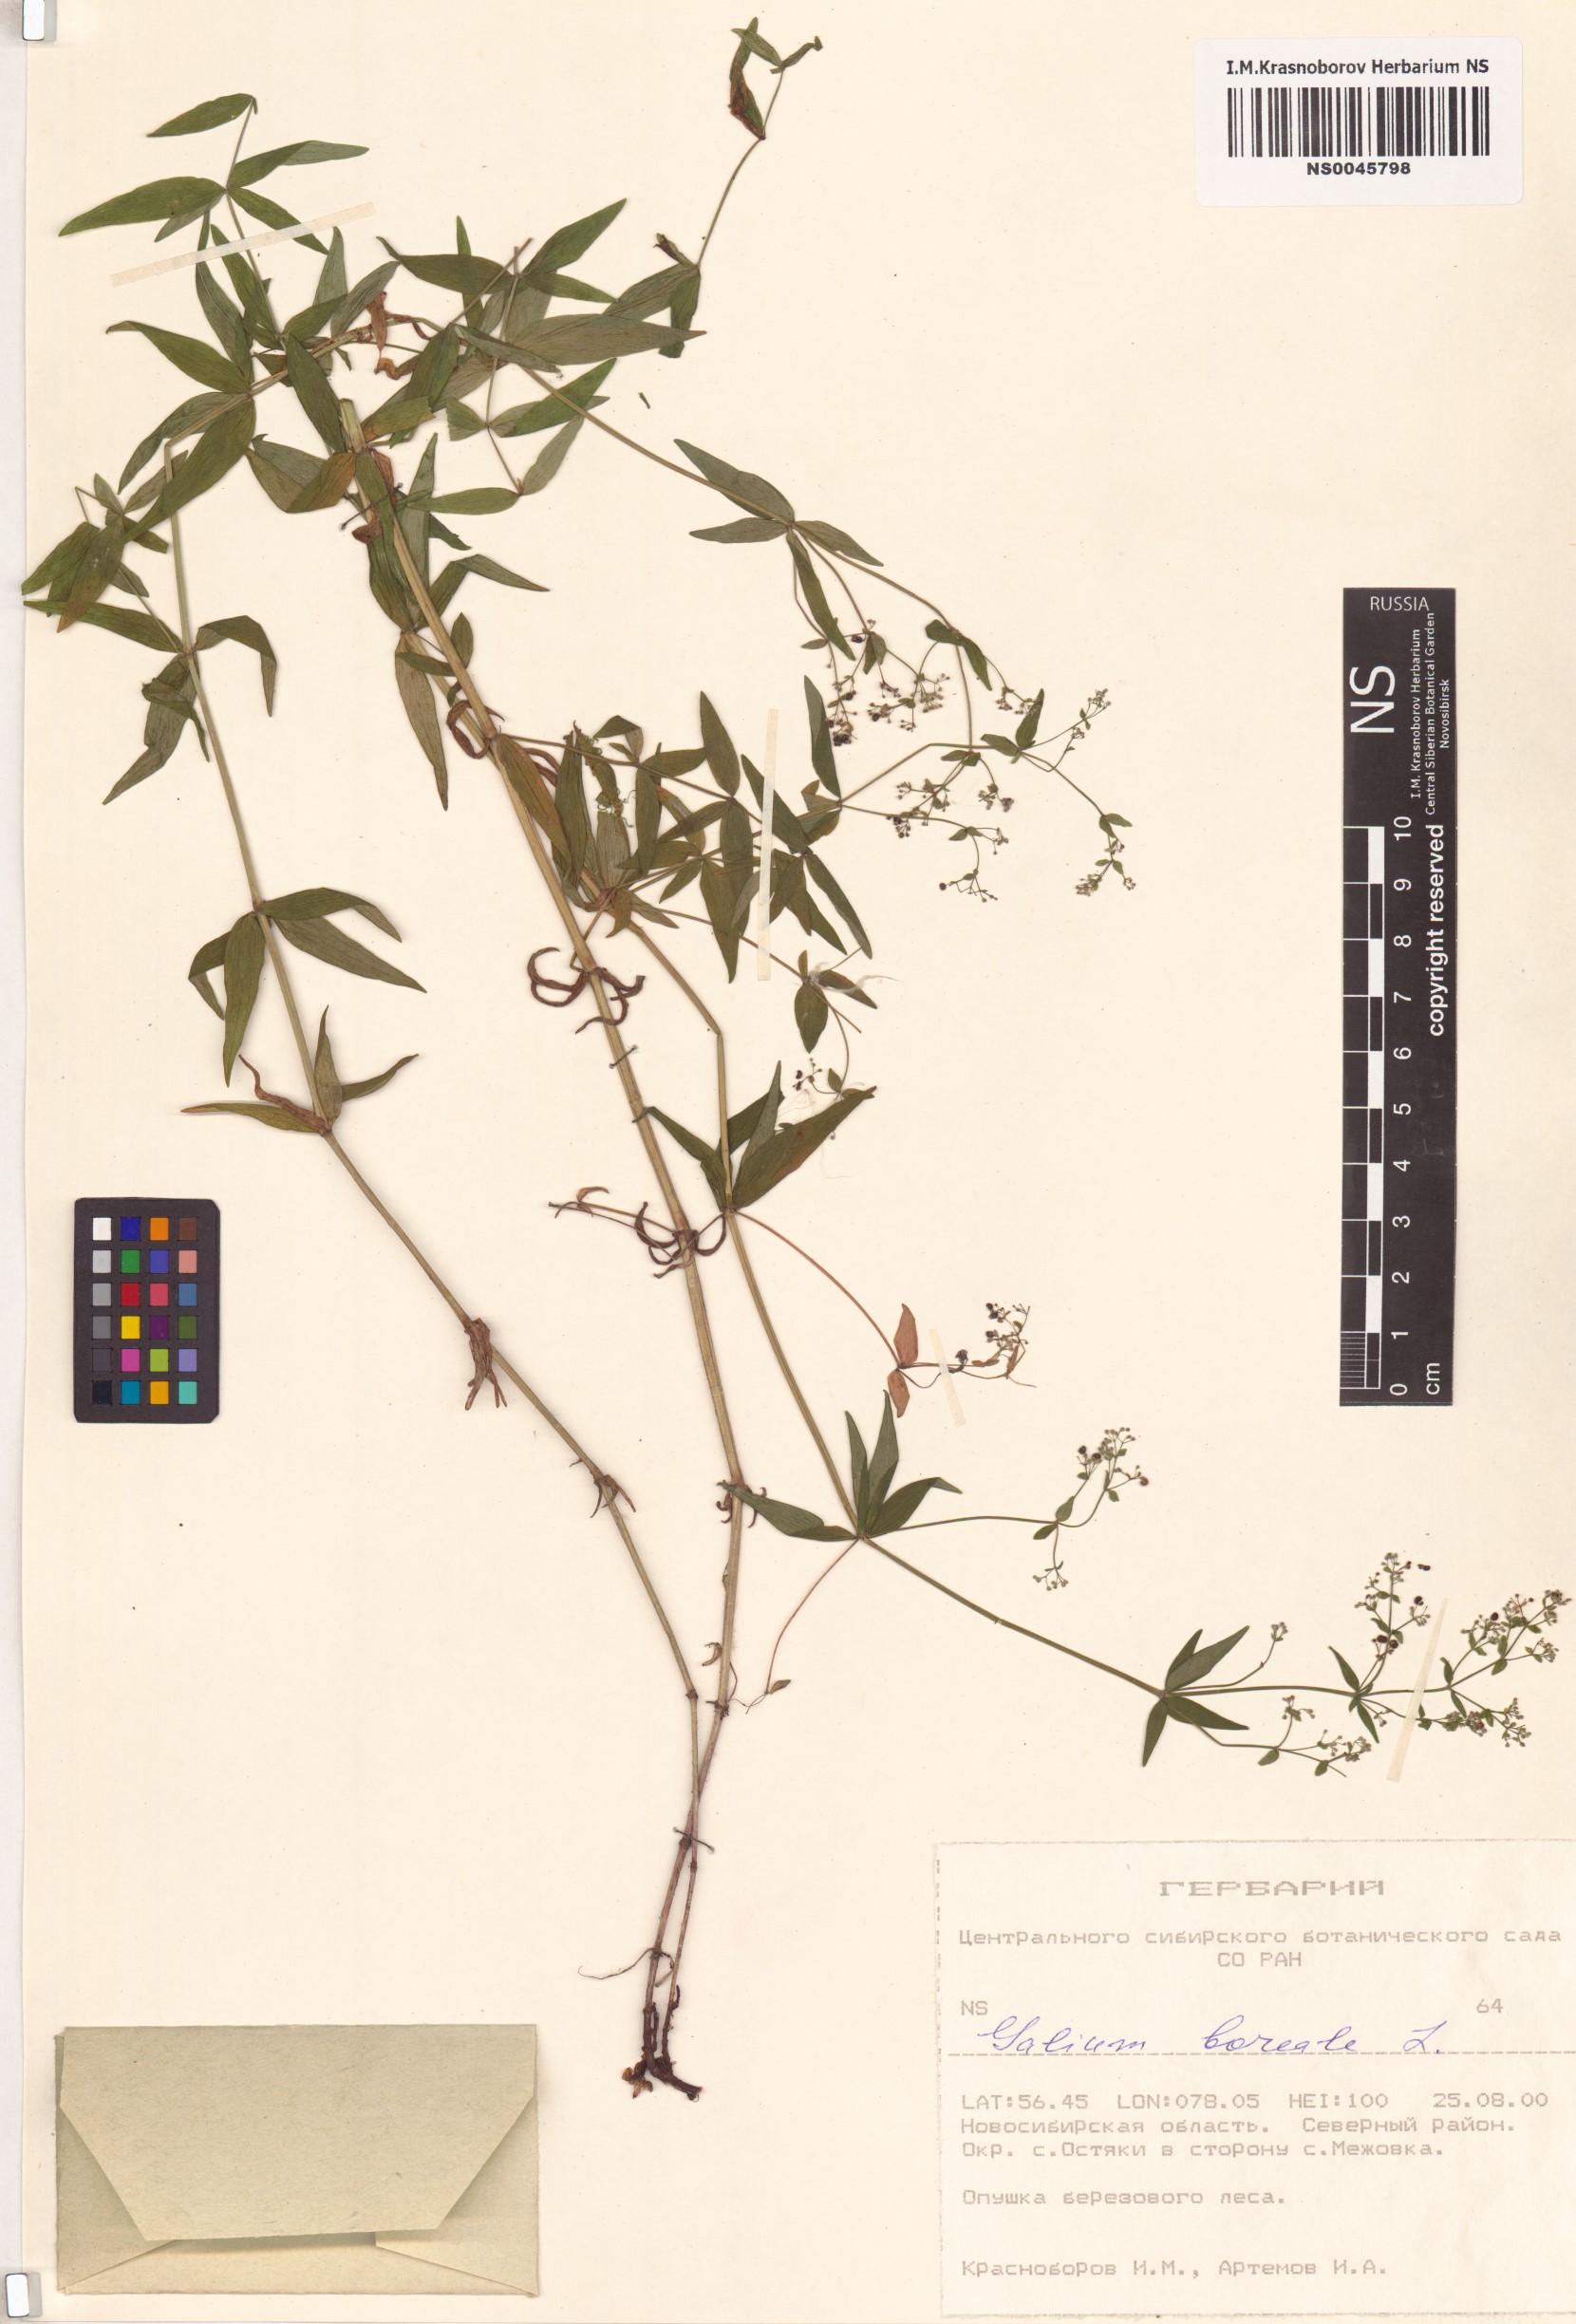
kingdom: Plantae
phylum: Tracheophyta
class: Magnoliopsida
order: Gentianales
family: Rubiaceae
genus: Galium
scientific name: Galium boreale
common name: Northern bedstraw
